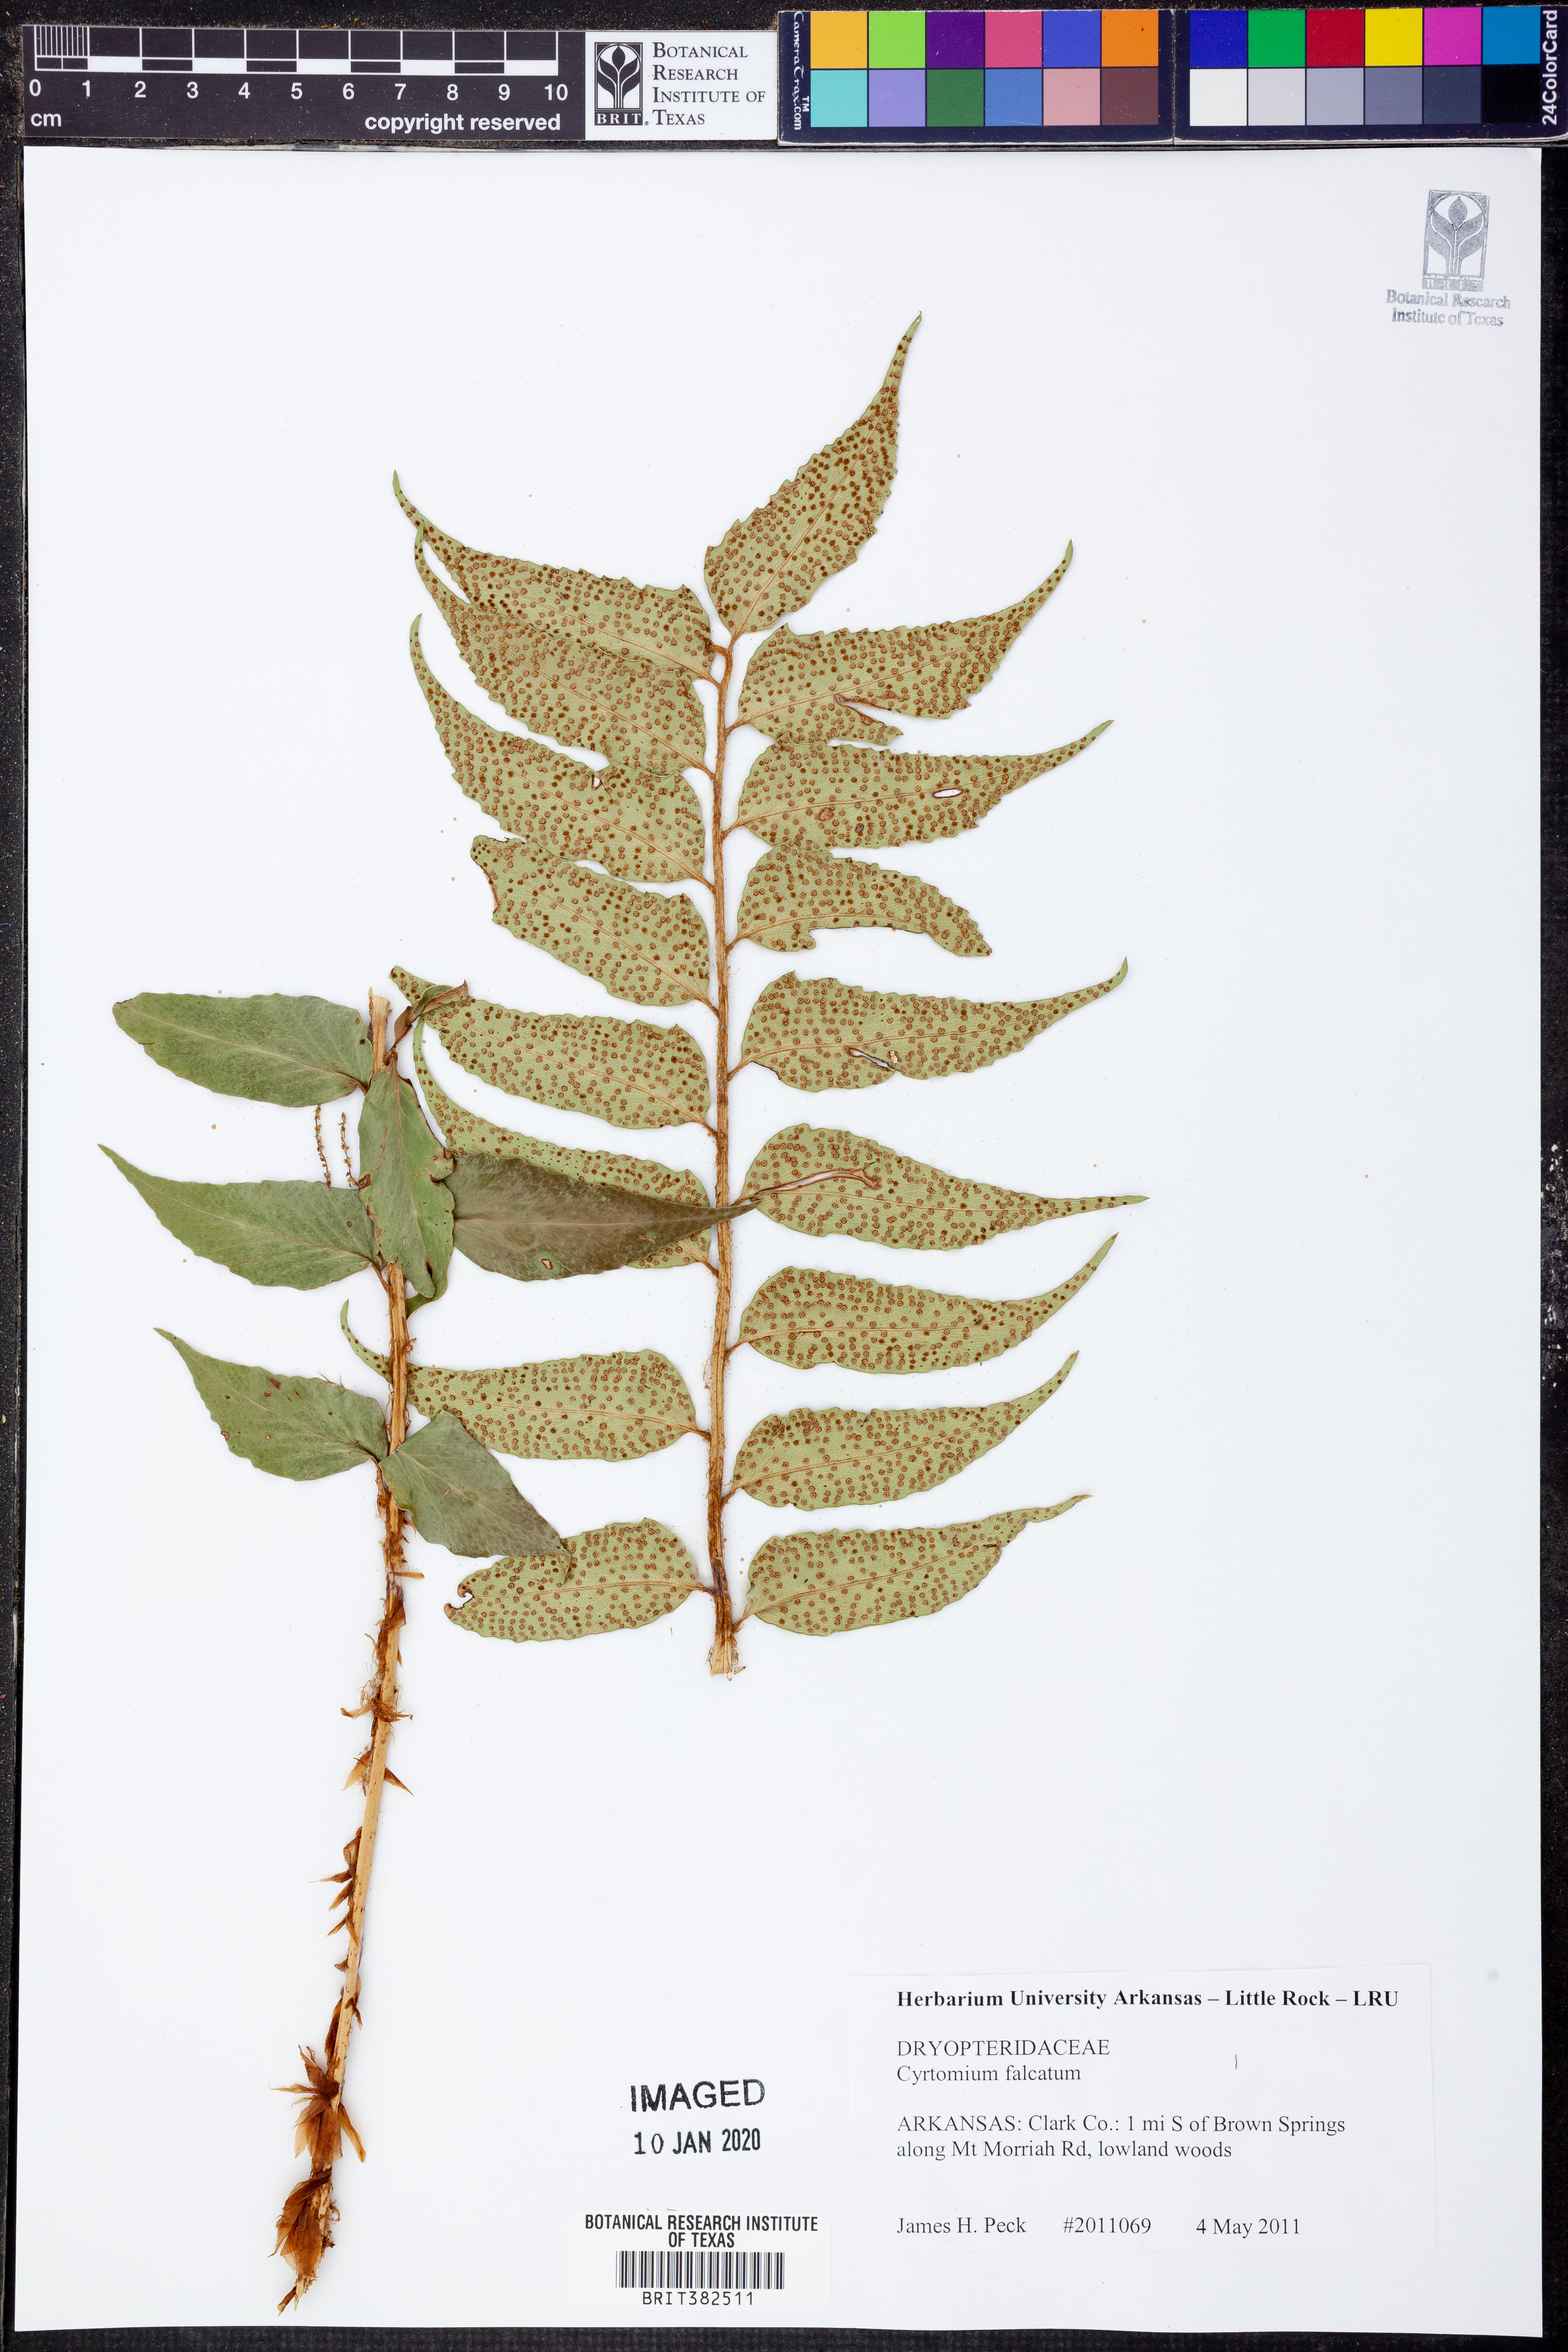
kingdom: Plantae
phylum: Tracheophyta
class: Polypodiopsida
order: Polypodiales
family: Dryopteridaceae
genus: Cyrtomium
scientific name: Cyrtomium falcatum
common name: House holly-fern
